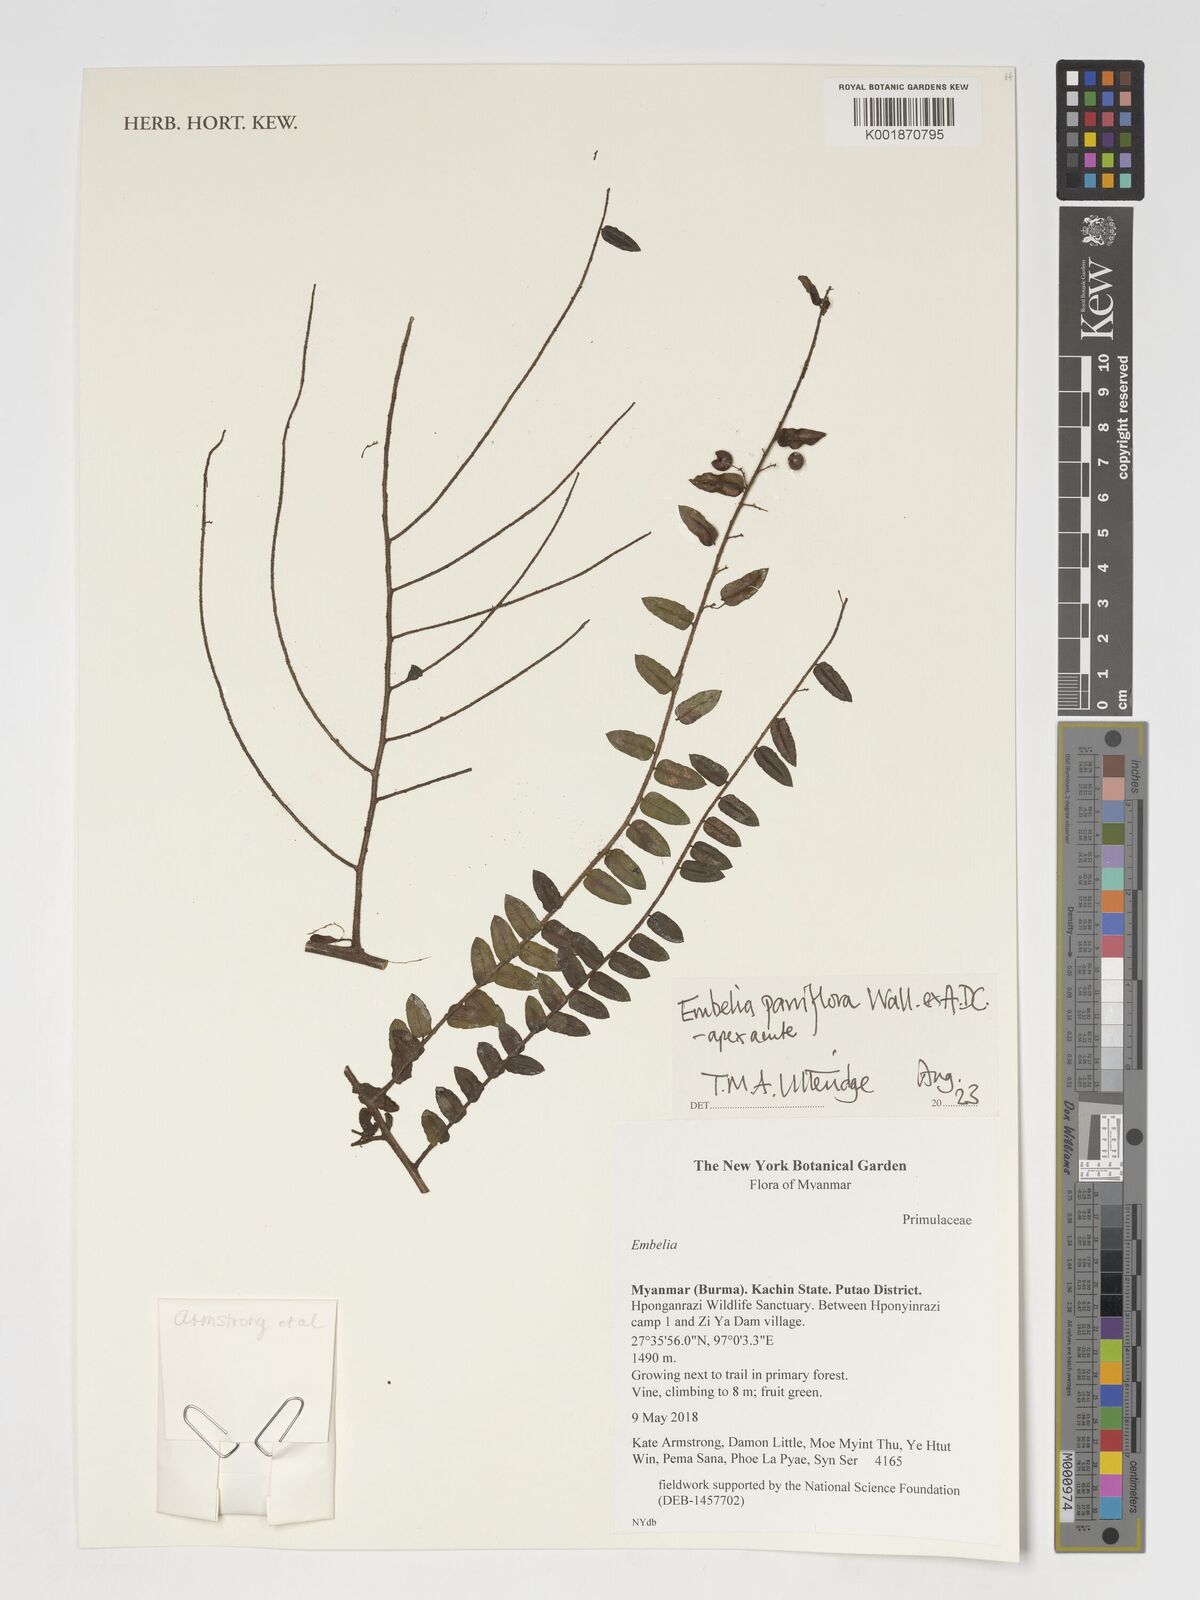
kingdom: Plantae
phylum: Tracheophyta
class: Magnoliopsida
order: Ericales
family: Primulaceae
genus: Embelia
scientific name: Embelia parviflora
